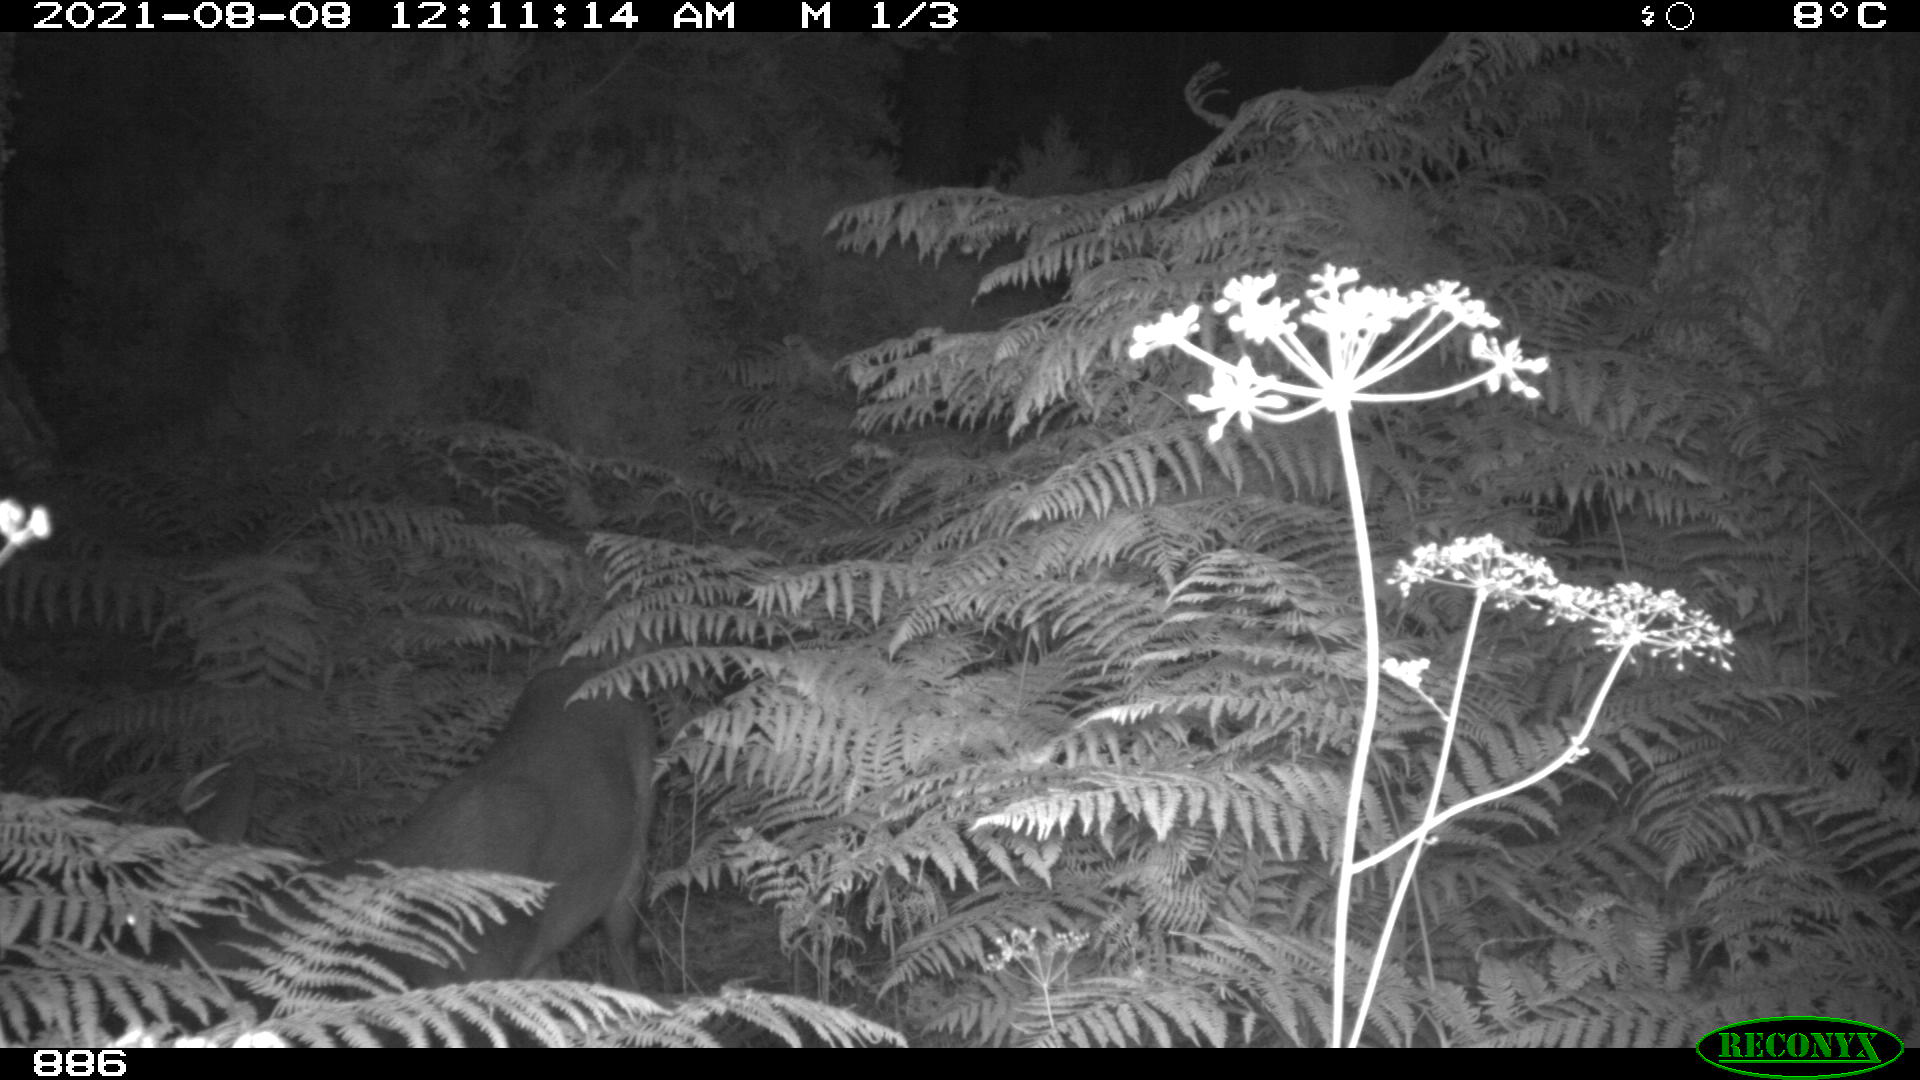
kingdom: Animalia
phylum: Chordata
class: Mammalia
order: Artiodactyla
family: Cervidae
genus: Capreolus
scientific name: Capreolus capreolus
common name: Western roe deer
